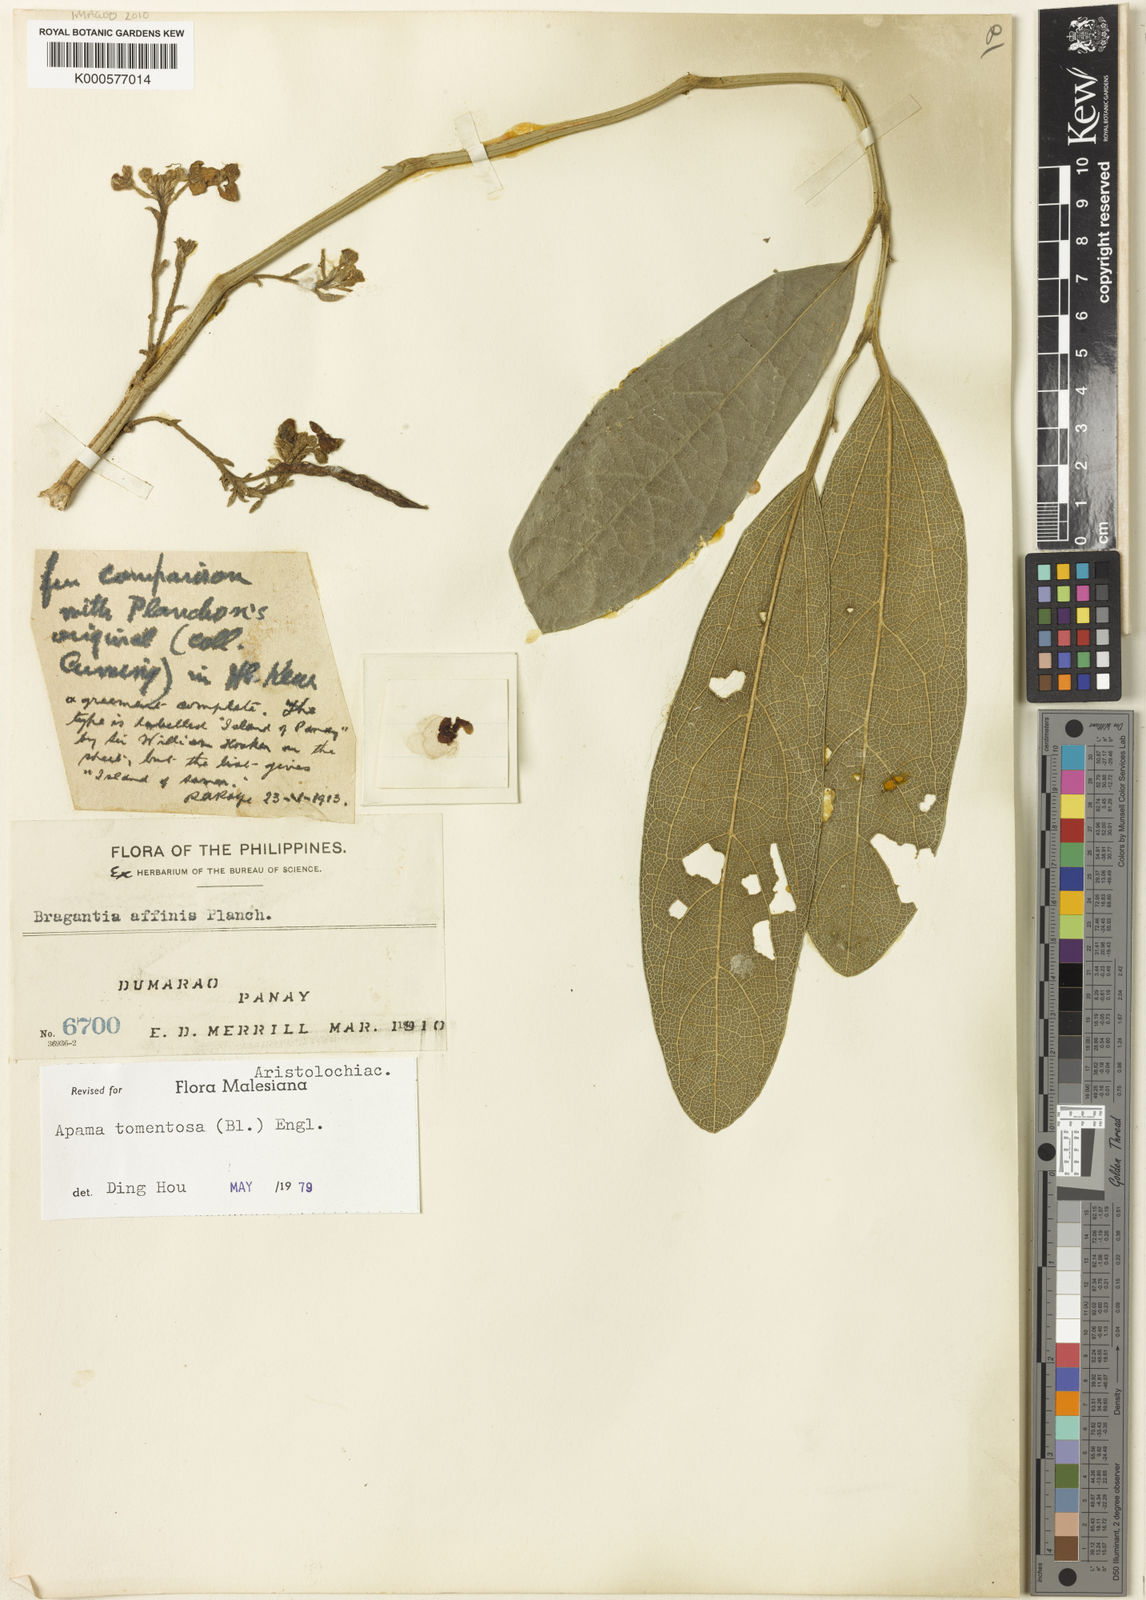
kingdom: Plantae
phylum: Tracheophyta
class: Magnoliopsida
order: Piperales
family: Aristolochiaceae
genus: Thottea
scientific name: Thottea tomentosa
